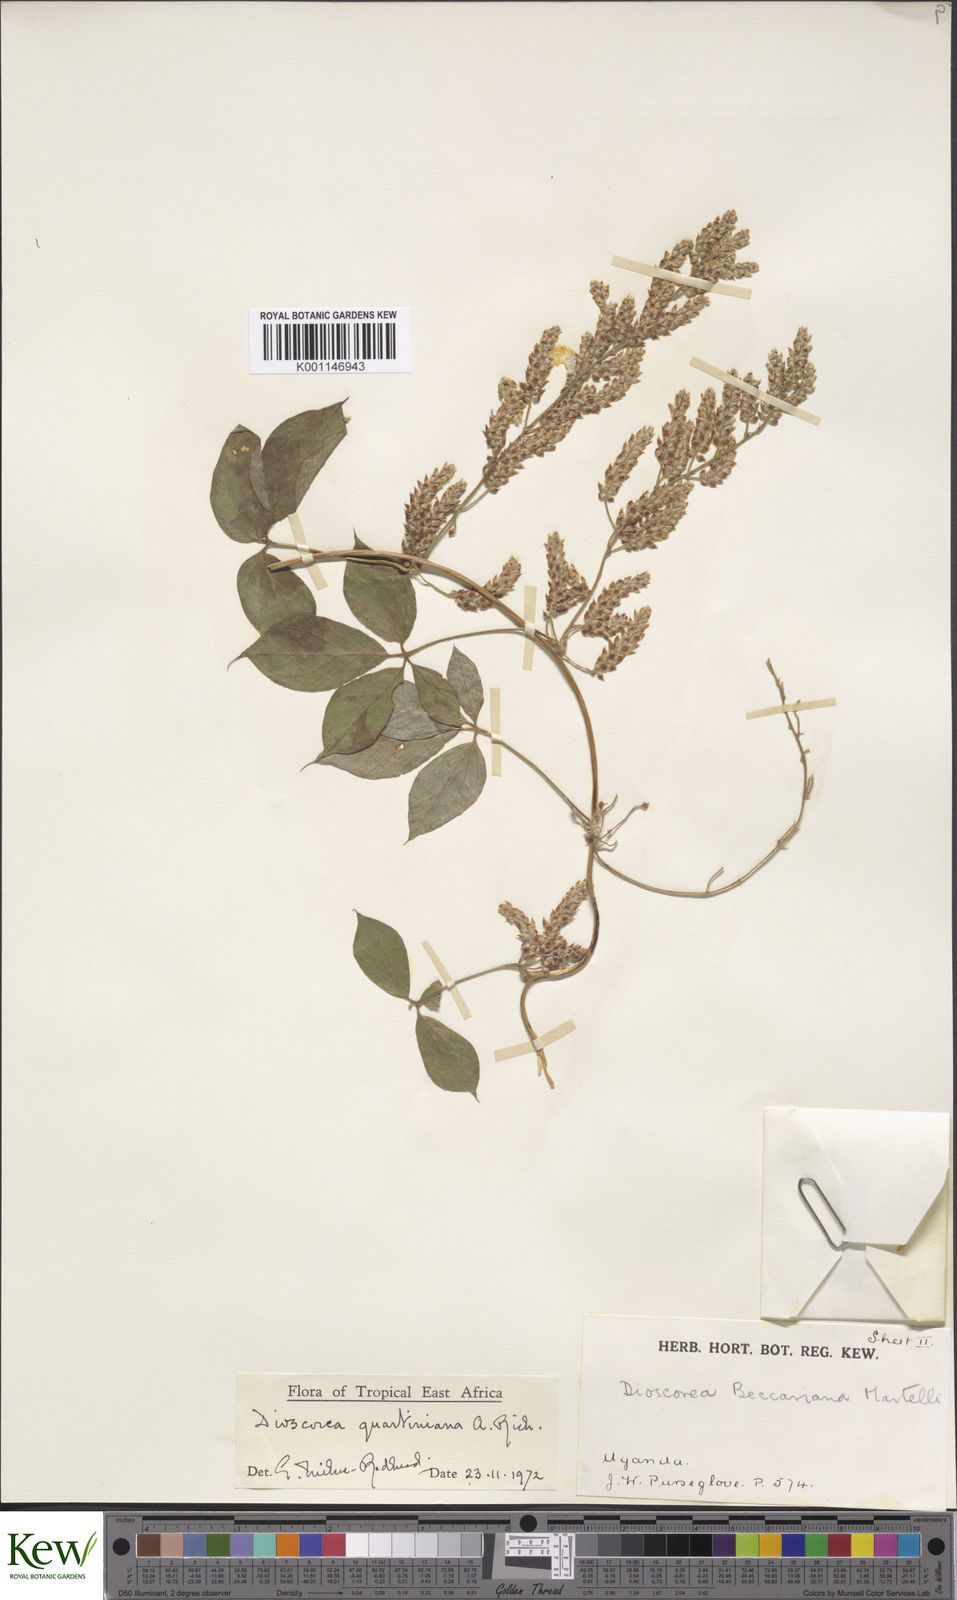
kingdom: Plantae
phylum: Tracheophyta
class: Liliopsida
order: Dioscoreales
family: Dioscoreaceae
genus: Dioscorea
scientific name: Dioscorea quartiniana
